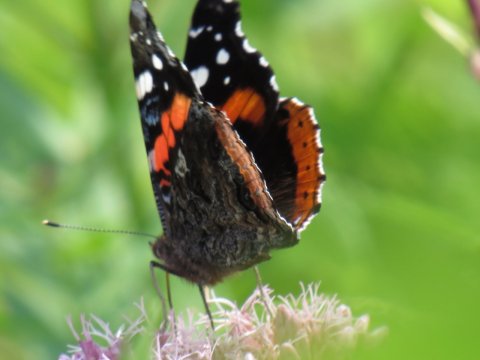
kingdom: Animalia
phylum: Arthropoda
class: Insecta
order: Lepidoptera
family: Nymphalidae
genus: Vanessa
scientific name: Vanessa atalanta
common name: Red Admiral
